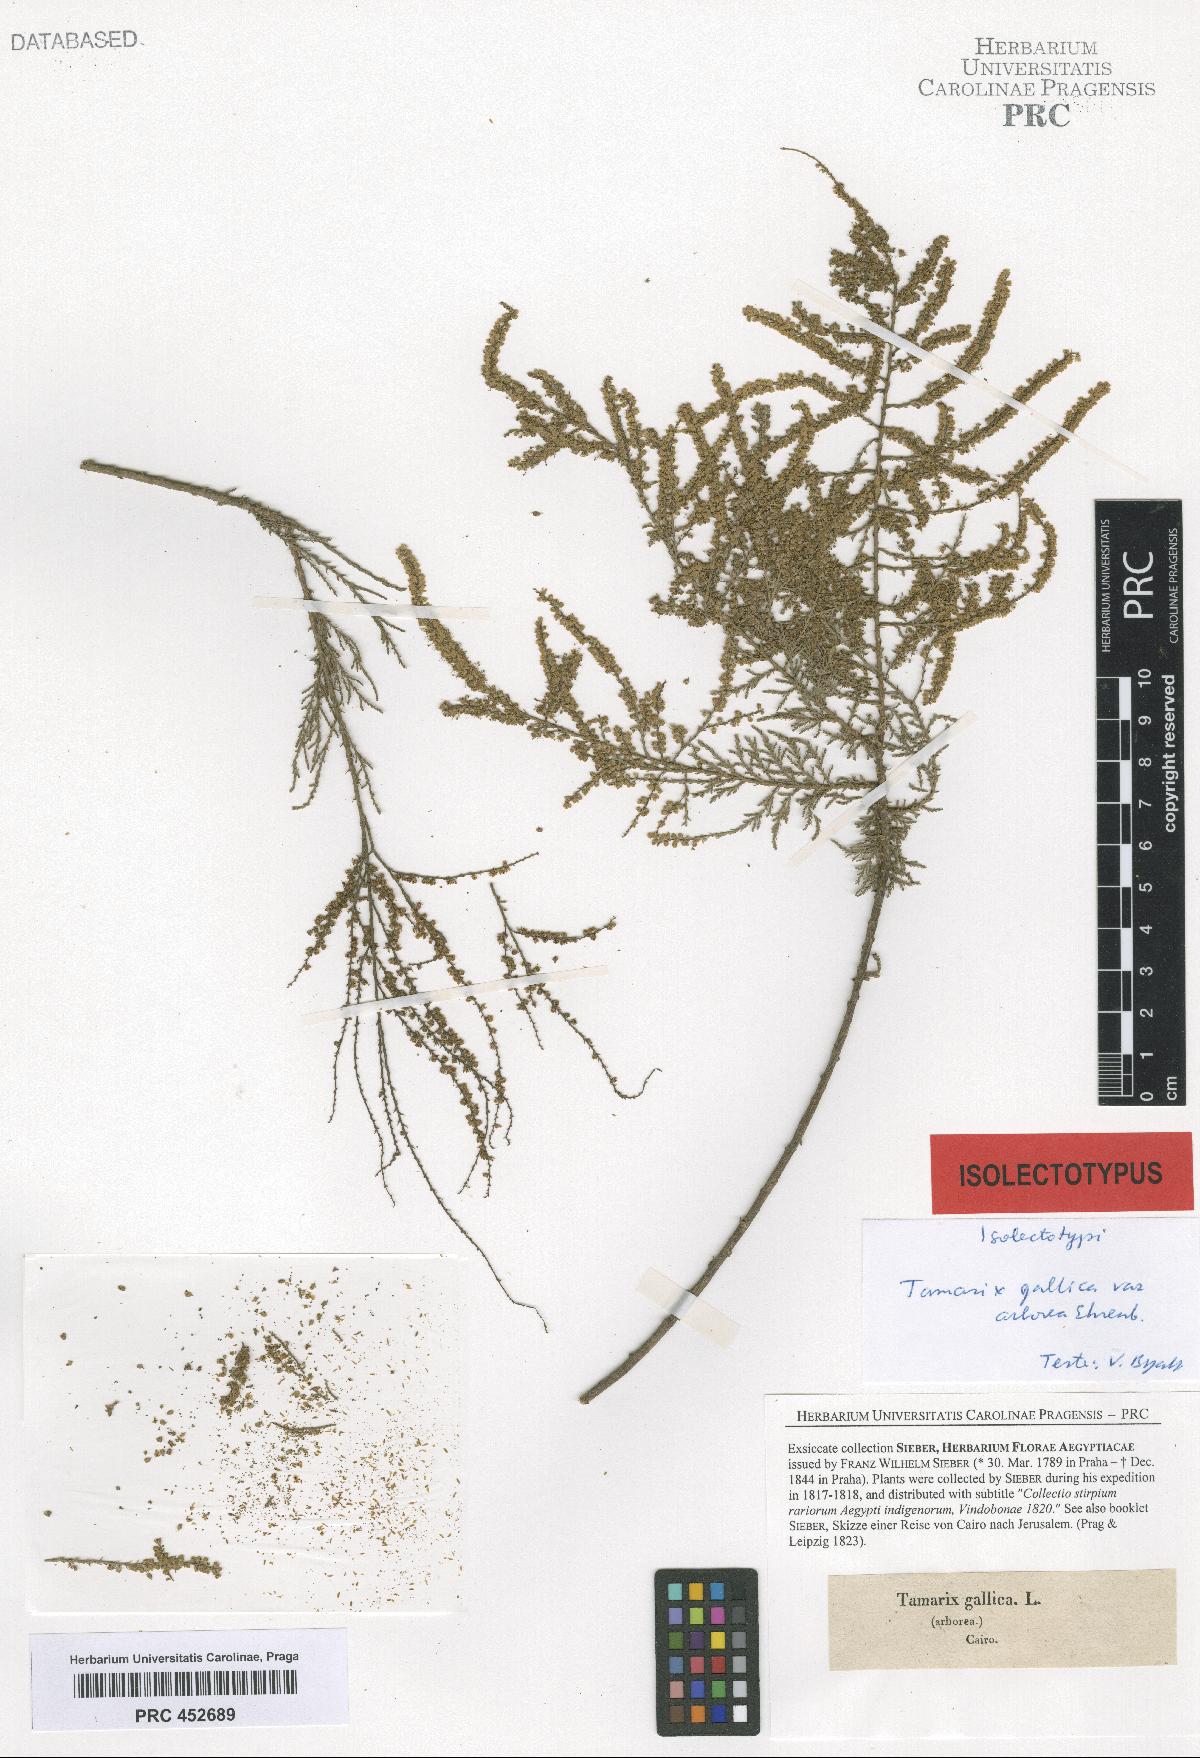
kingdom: Plantae
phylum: Tracheophyta
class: Magnoliopsida
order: Caryophyllales
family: Tamaricaceae
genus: Tamarix
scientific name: Tamarix
